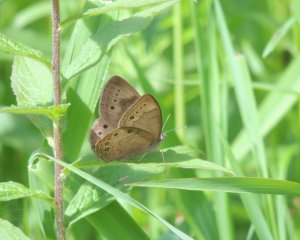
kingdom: Animalia
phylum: Arthropoda
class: Insecta
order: Lepidoptera
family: Nymphalidae
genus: Lethe
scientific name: Lethe eurydice
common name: Eyed Brown
